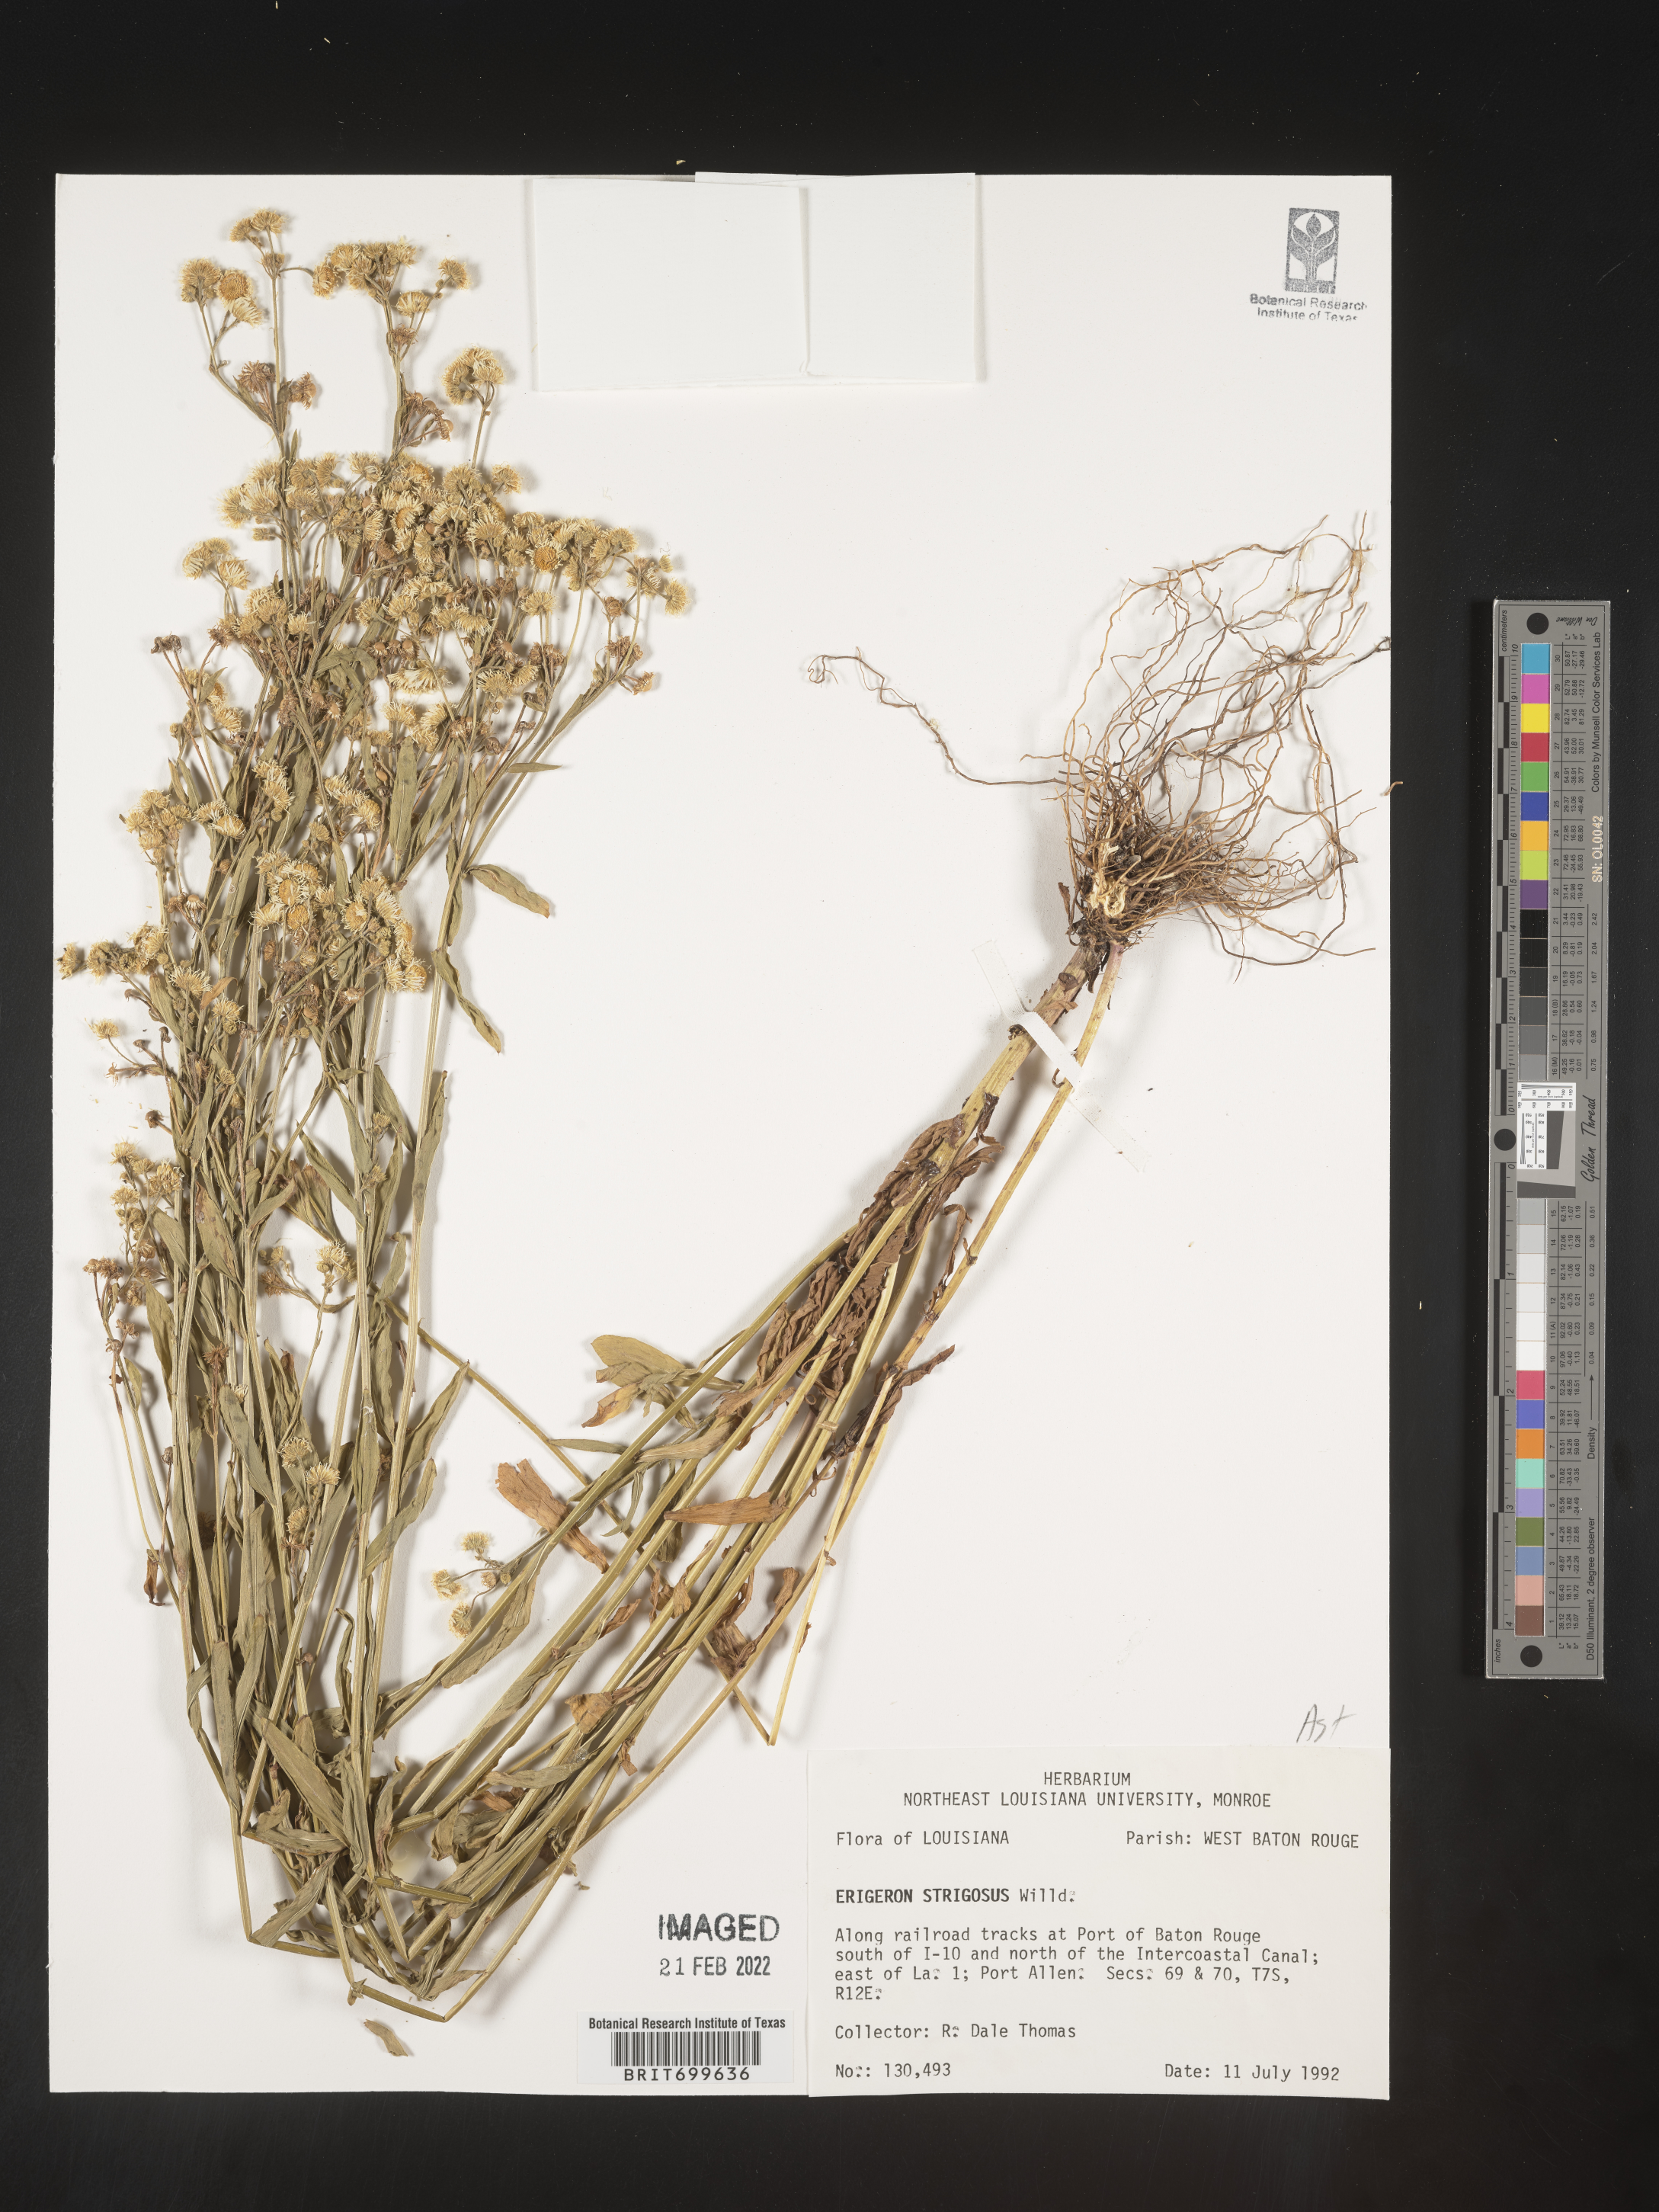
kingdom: Plantae
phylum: Tracheophyta
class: Magnoliopsida
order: Asterales
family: Asteraceae
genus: Erigeron
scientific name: Erigeron strigosus
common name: Common eastern fleabane
